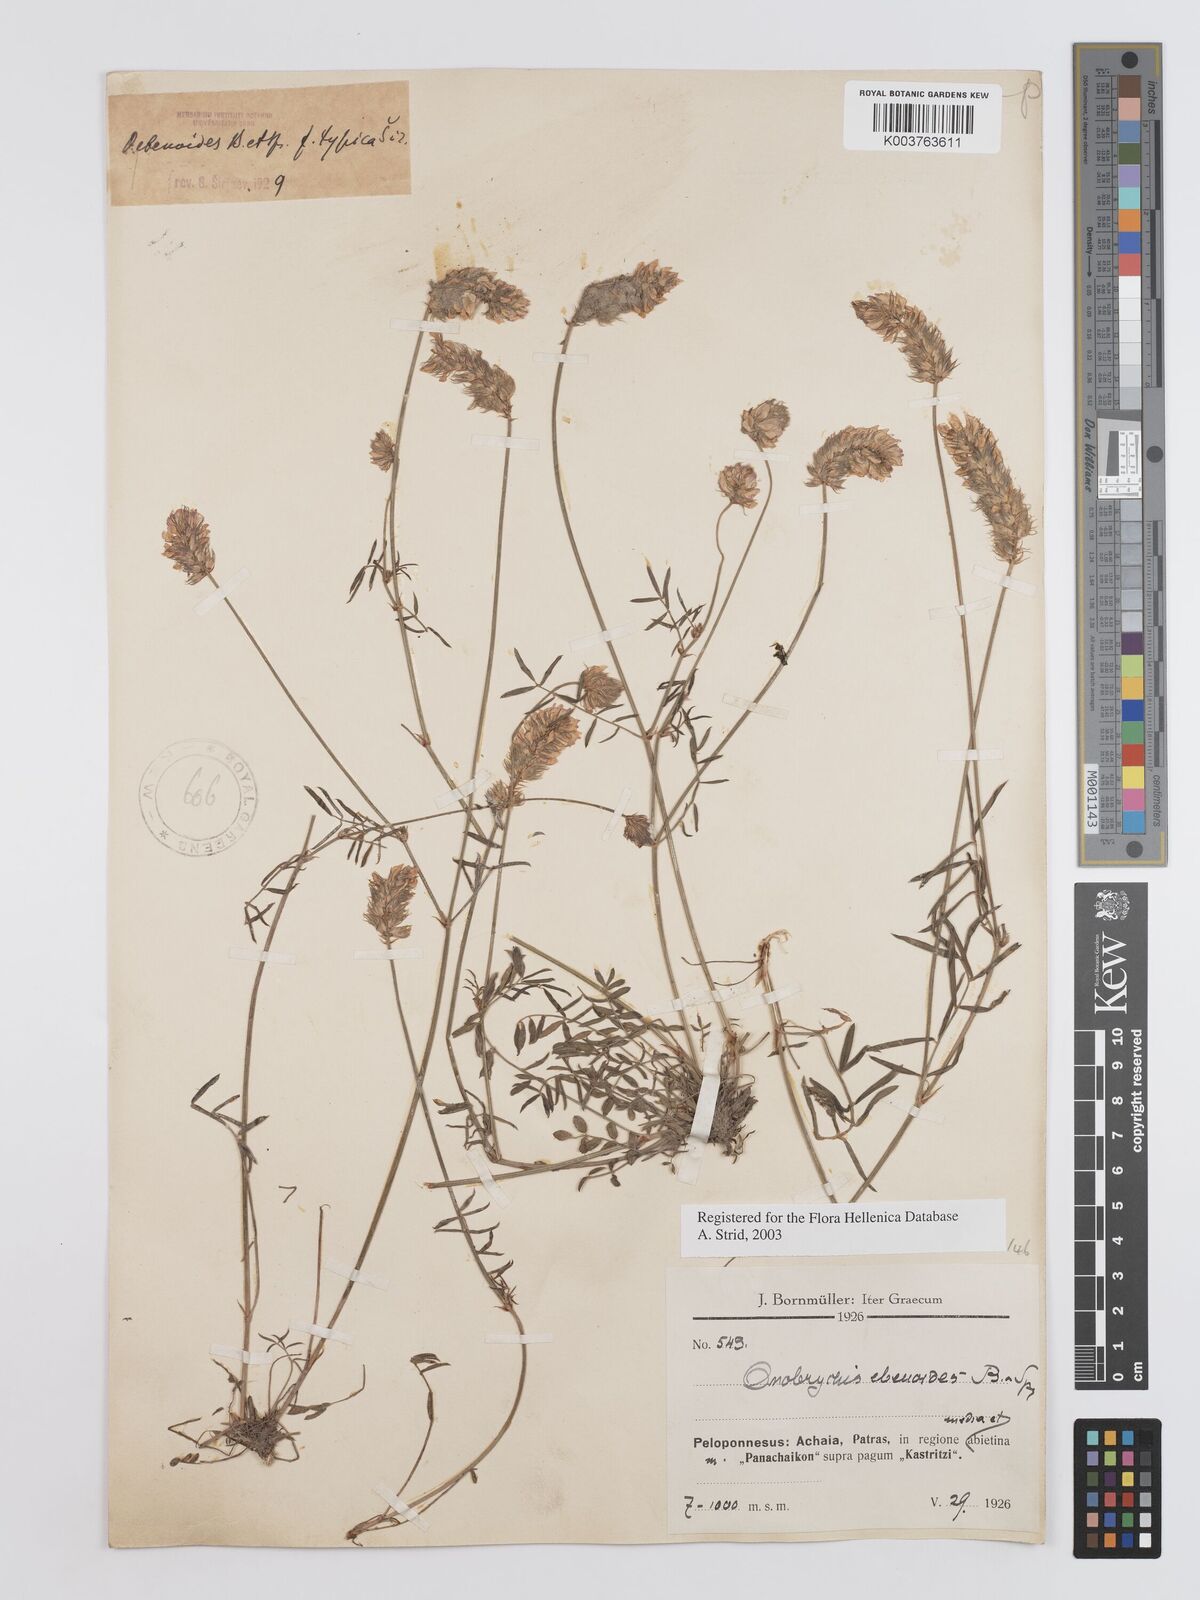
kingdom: Plantae
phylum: Tracheophyta
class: Magnoliopsida
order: Fabales
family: Fabaceae
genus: Onobrychis
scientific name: Onobrychis ebenoides
